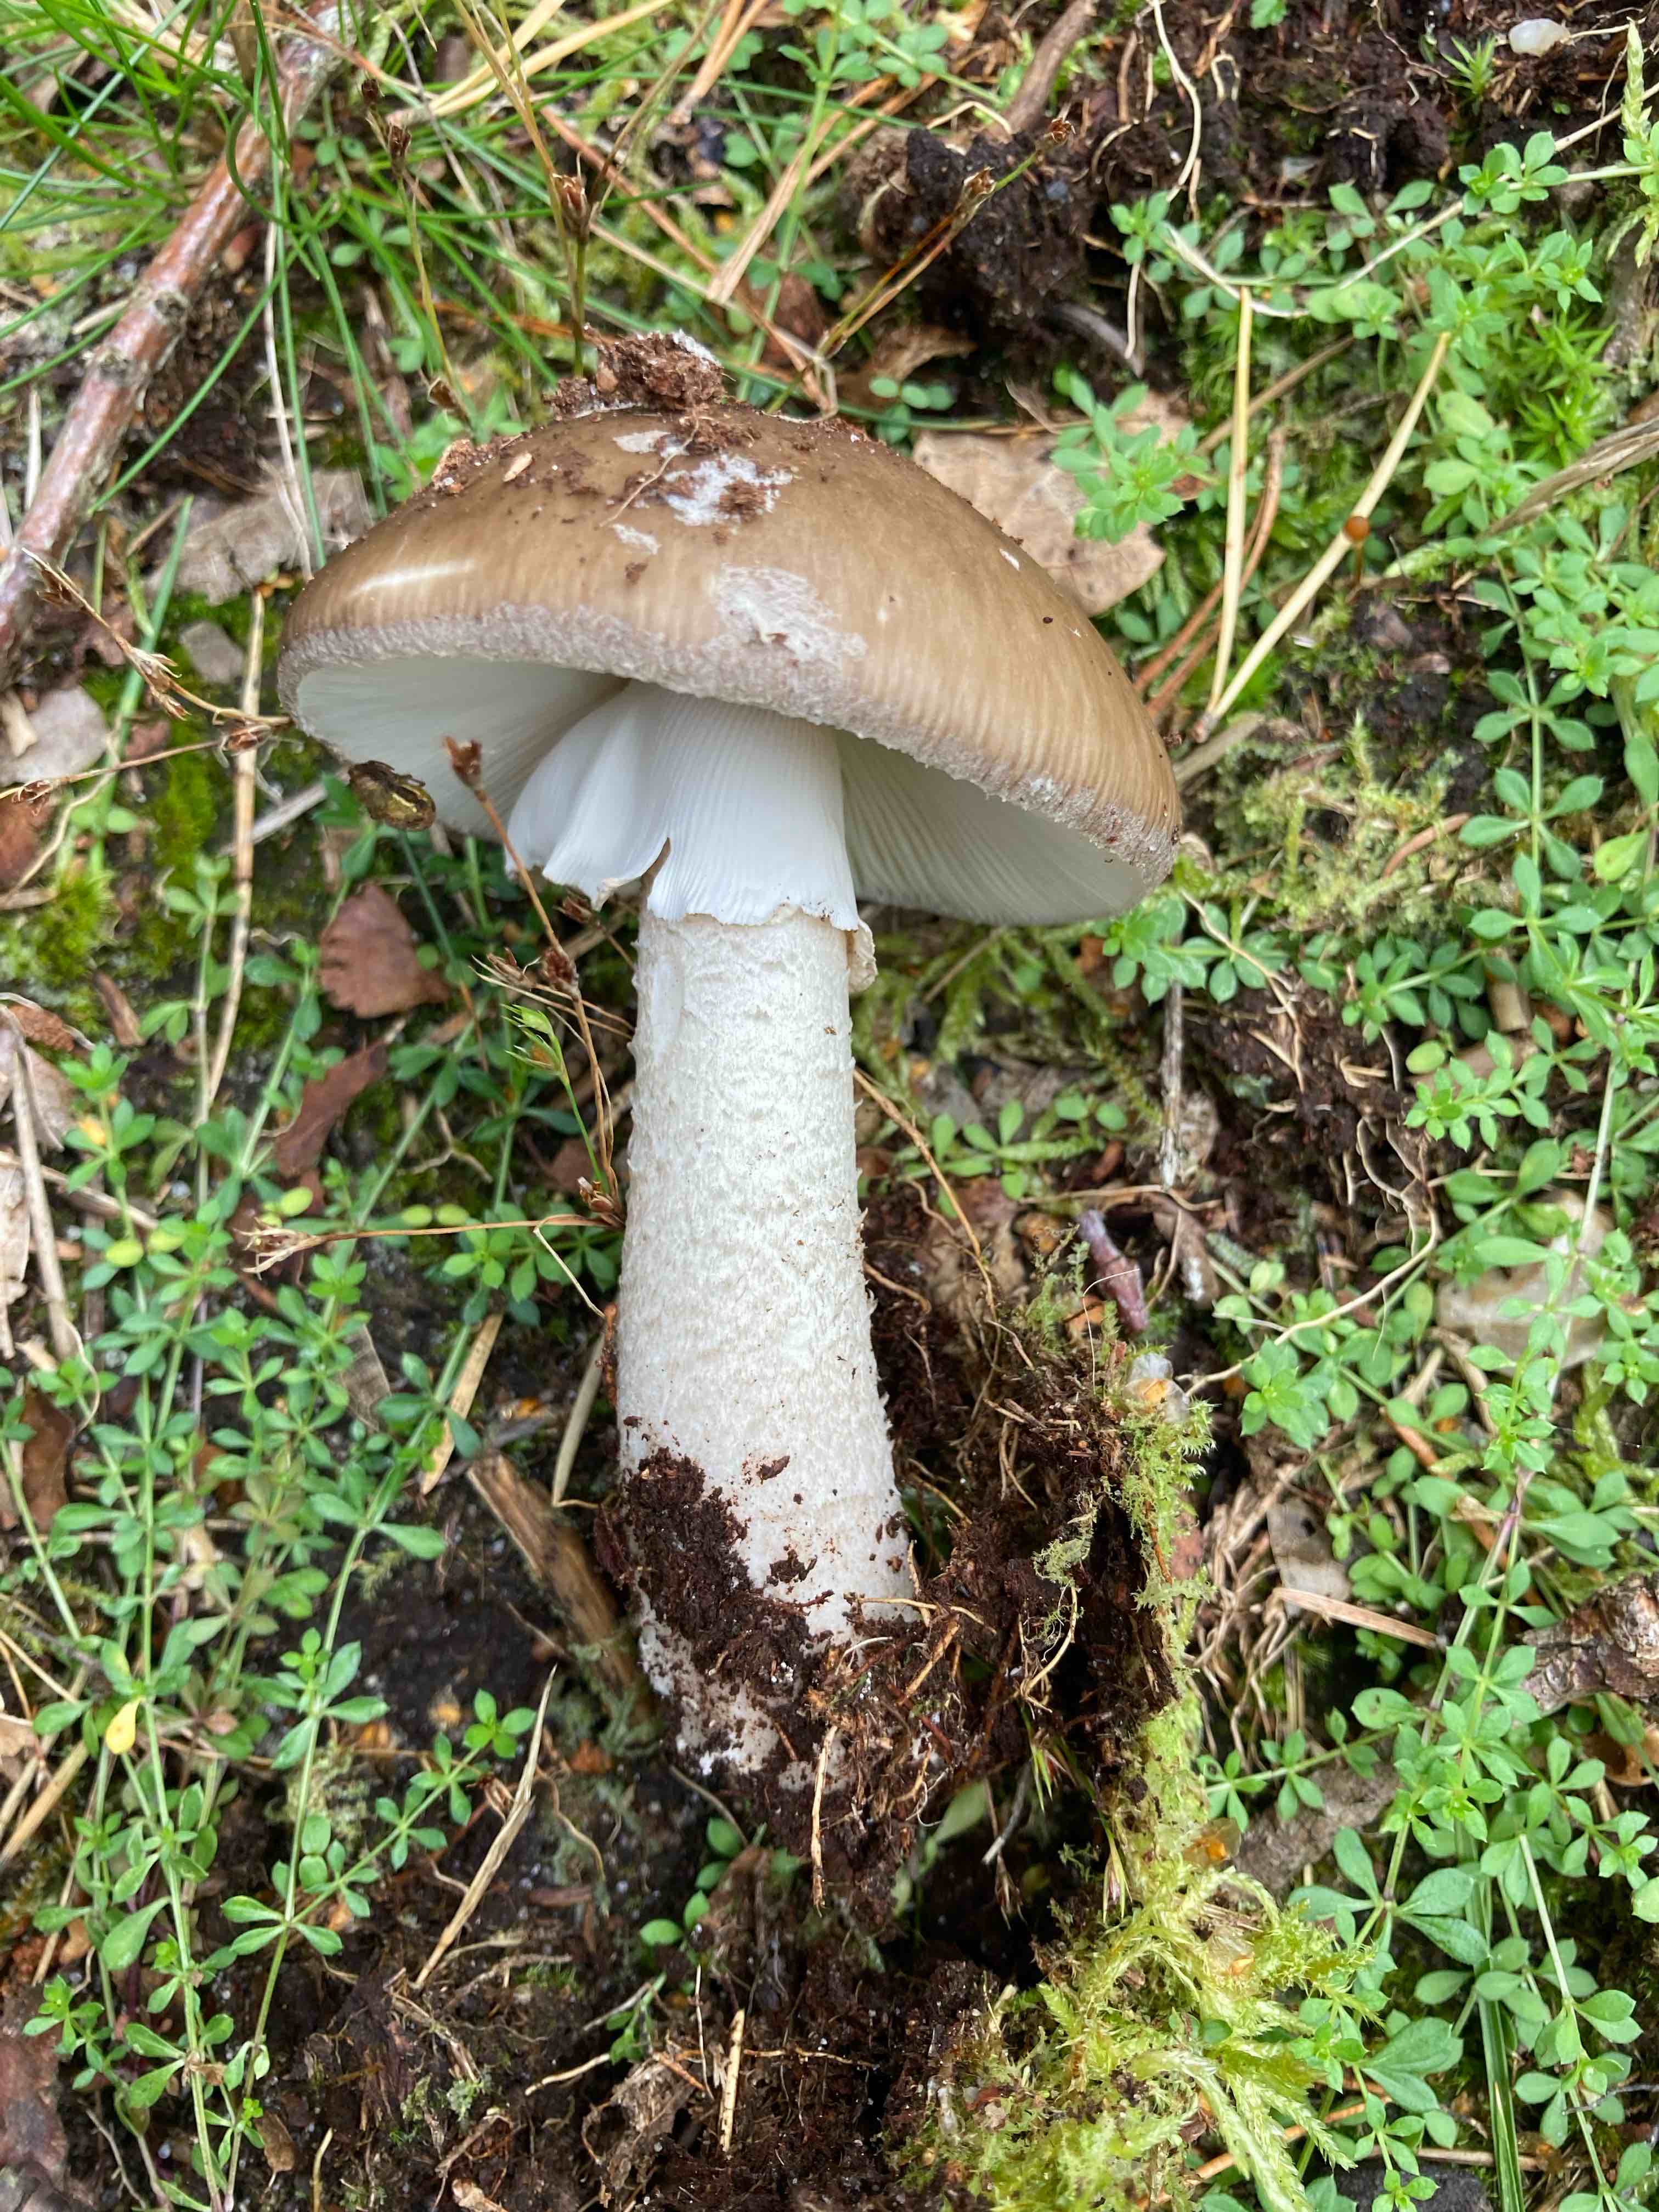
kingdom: Fungi
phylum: Basidiomycota
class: Agaricomycetes
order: Agaricales
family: Amanitaceae
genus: Amanita
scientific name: Amanita
